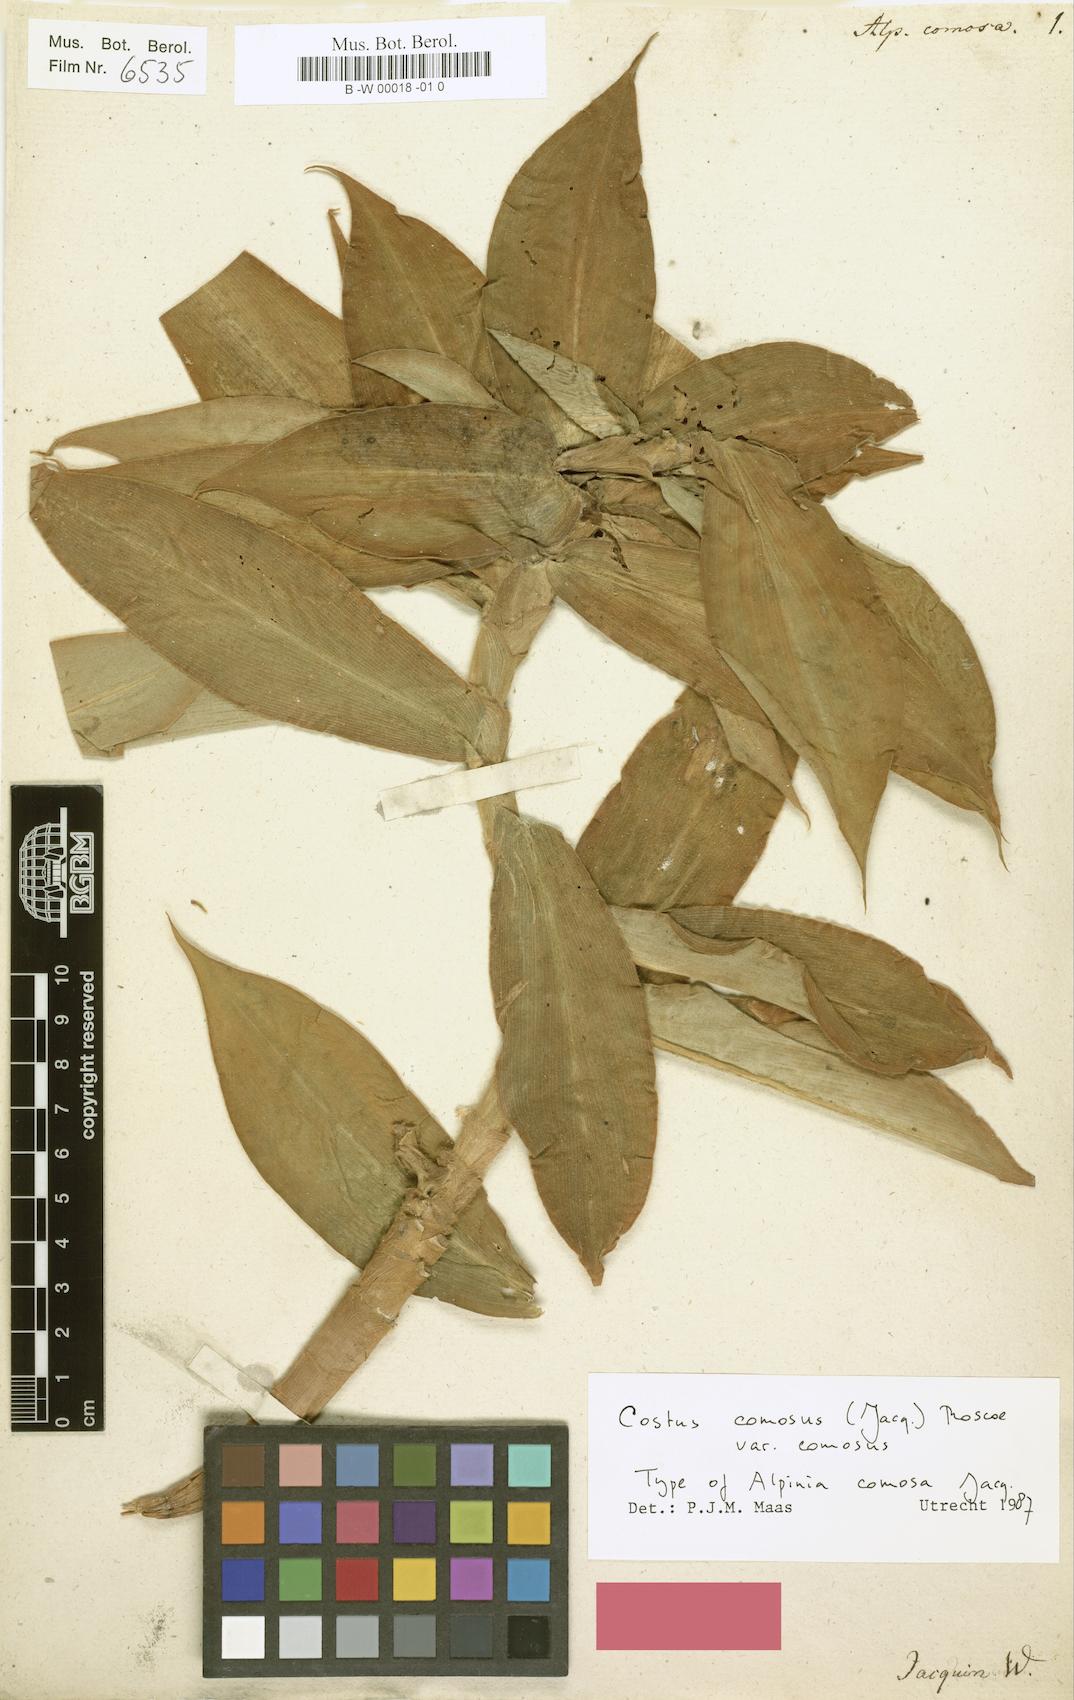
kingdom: Plantae
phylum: Tracheophyta
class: Liliopsida
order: Zingiberales
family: Costaceae
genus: Costus
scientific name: Costus comosus
